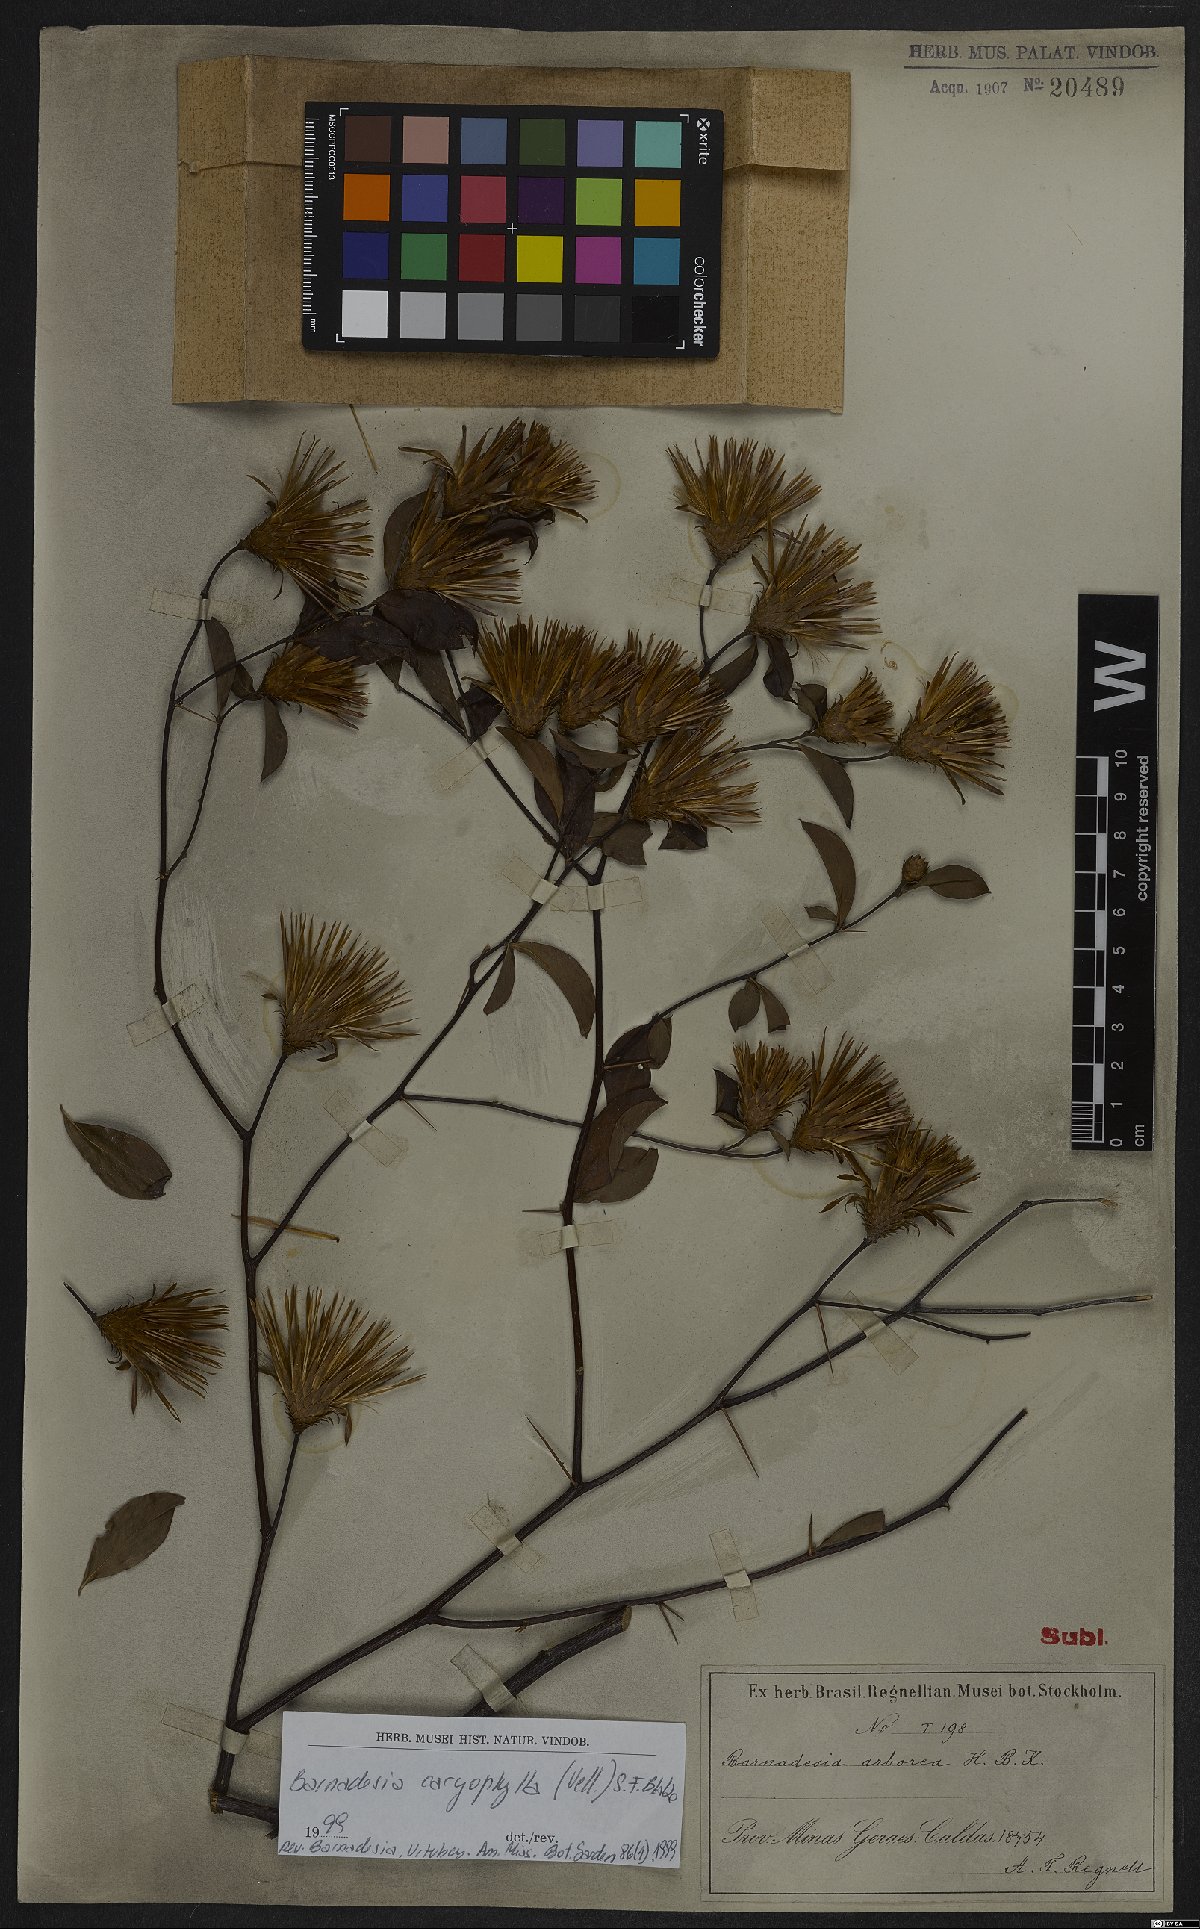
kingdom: Plantae
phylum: Tracheophyta
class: Magnoliopsida
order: Asterales
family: Asteraceae
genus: Barnadesia
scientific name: Barnadesia caryophylla
